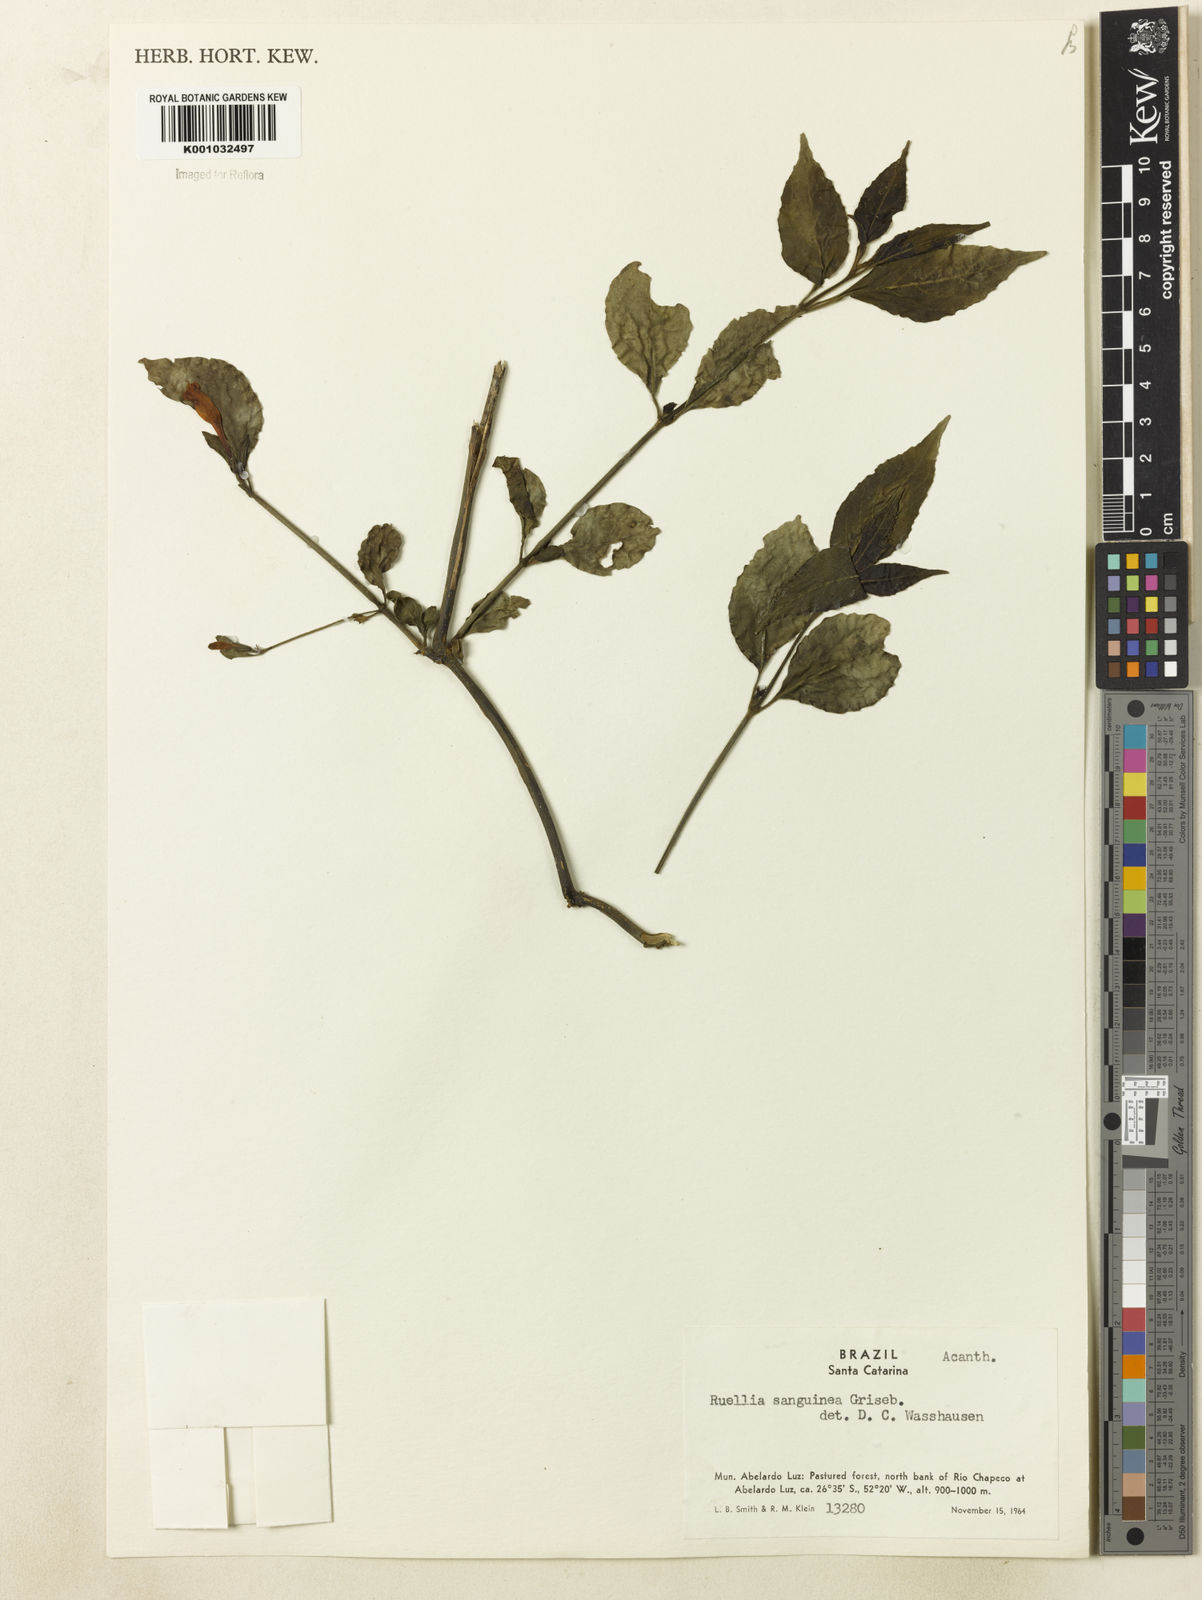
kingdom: Plantae
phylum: Tracheophyta
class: Magnoliopsida
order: Lamiales
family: Acanthaceae
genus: Ruellia
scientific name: Ruellia angustiflora
